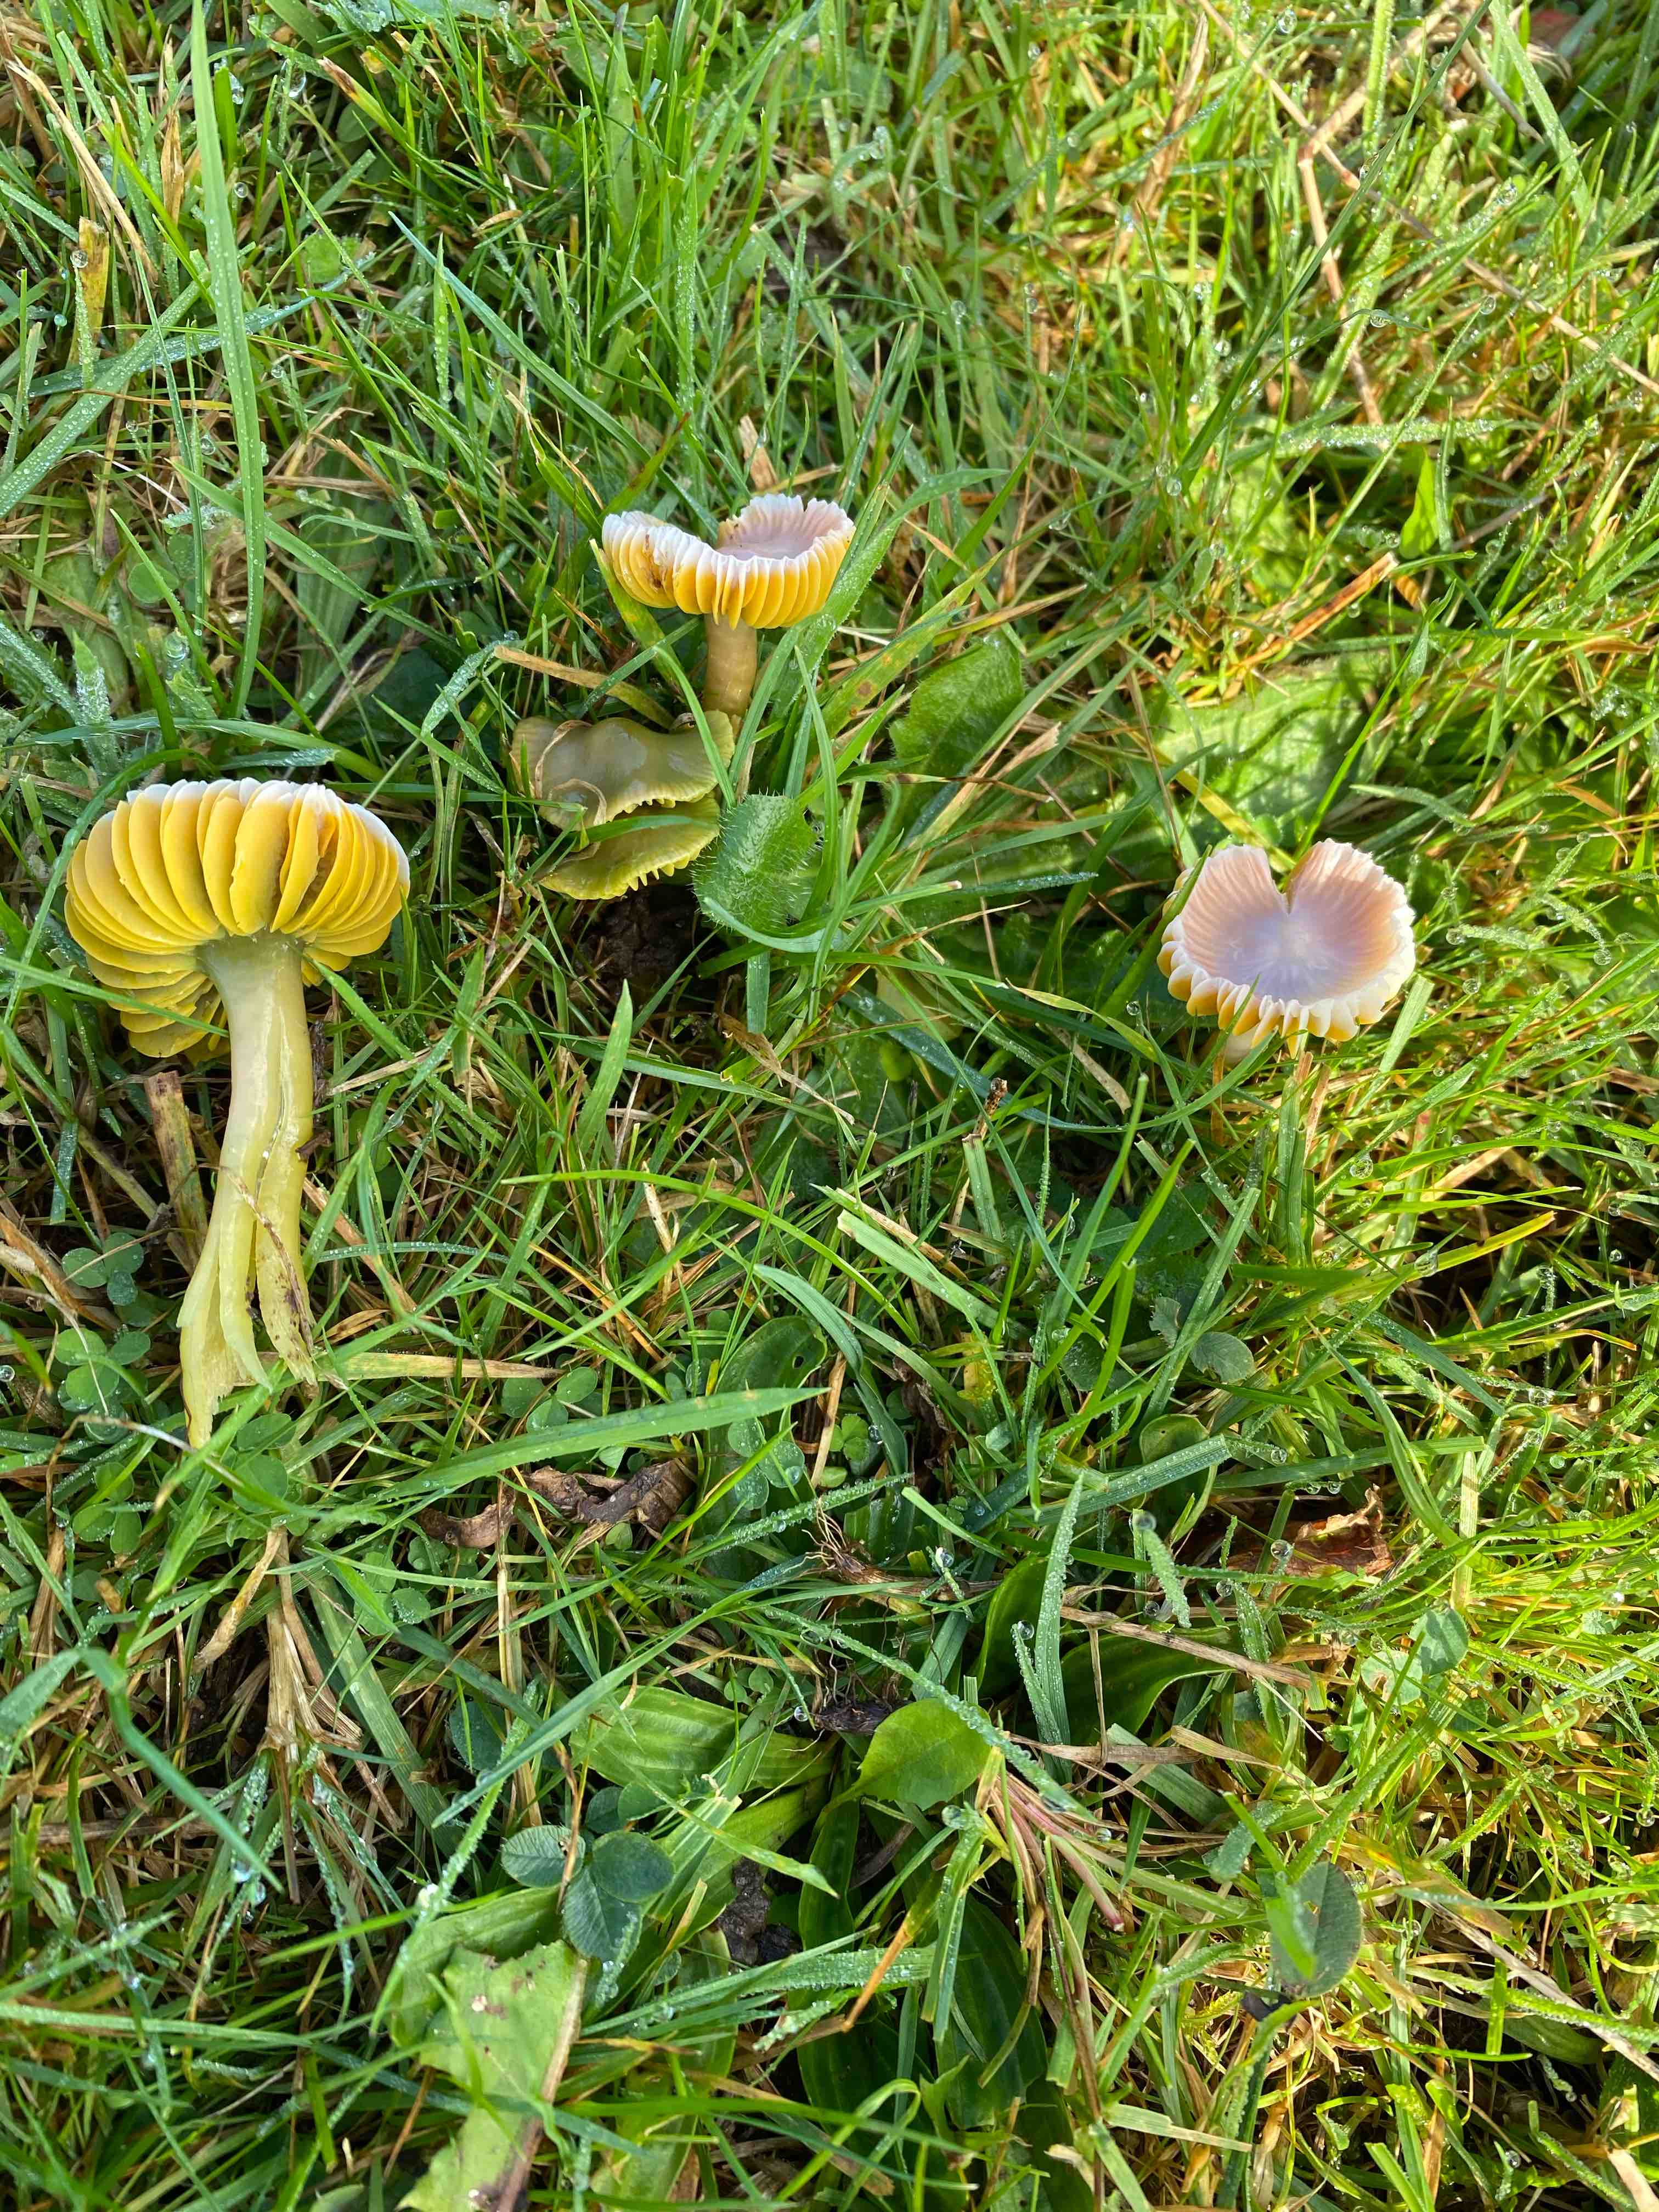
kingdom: Fungi
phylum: Basidiomycota
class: Agaricomycetes
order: Agaricales
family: Hygrophoraceae
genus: Gliophorus
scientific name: Gliophorus psittacinus
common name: papegøje-vokshat
